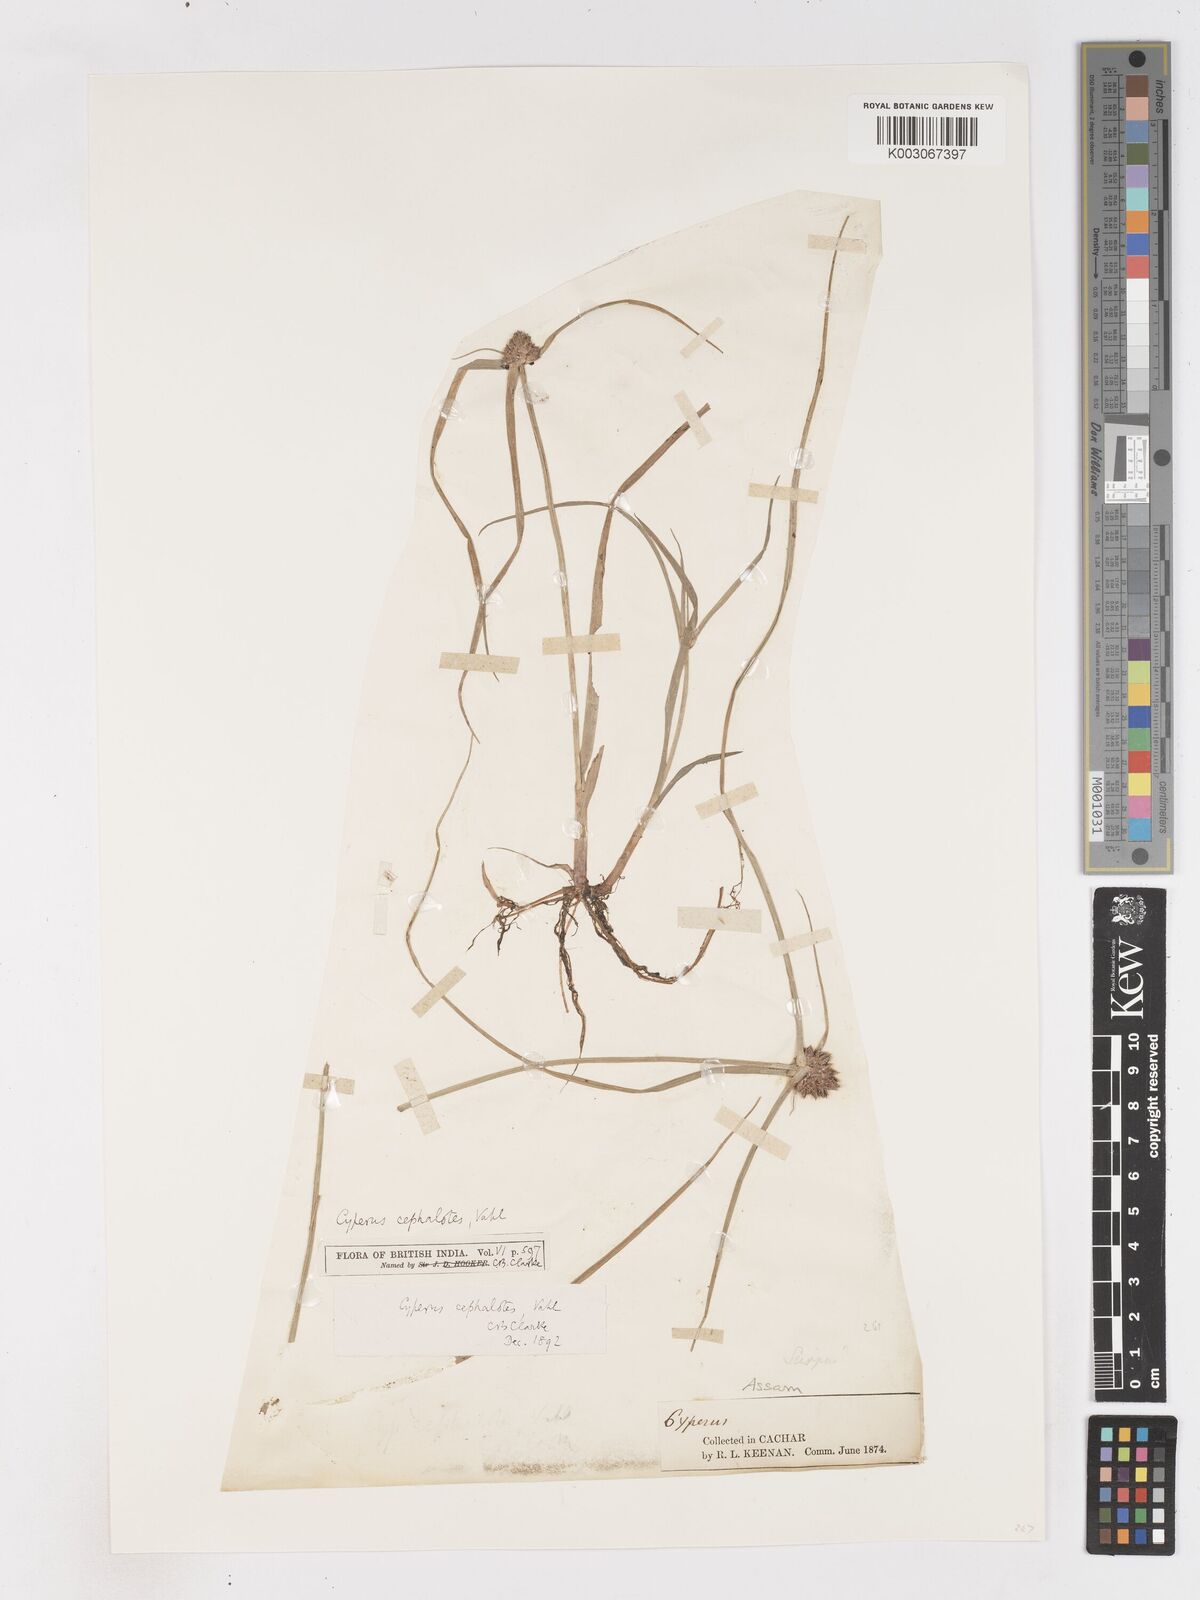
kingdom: Plantae
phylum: Tracheophyta
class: Liliopsida
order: Poales
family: Cyperaceae
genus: Cyperus
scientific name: Cyperus cephalotes
